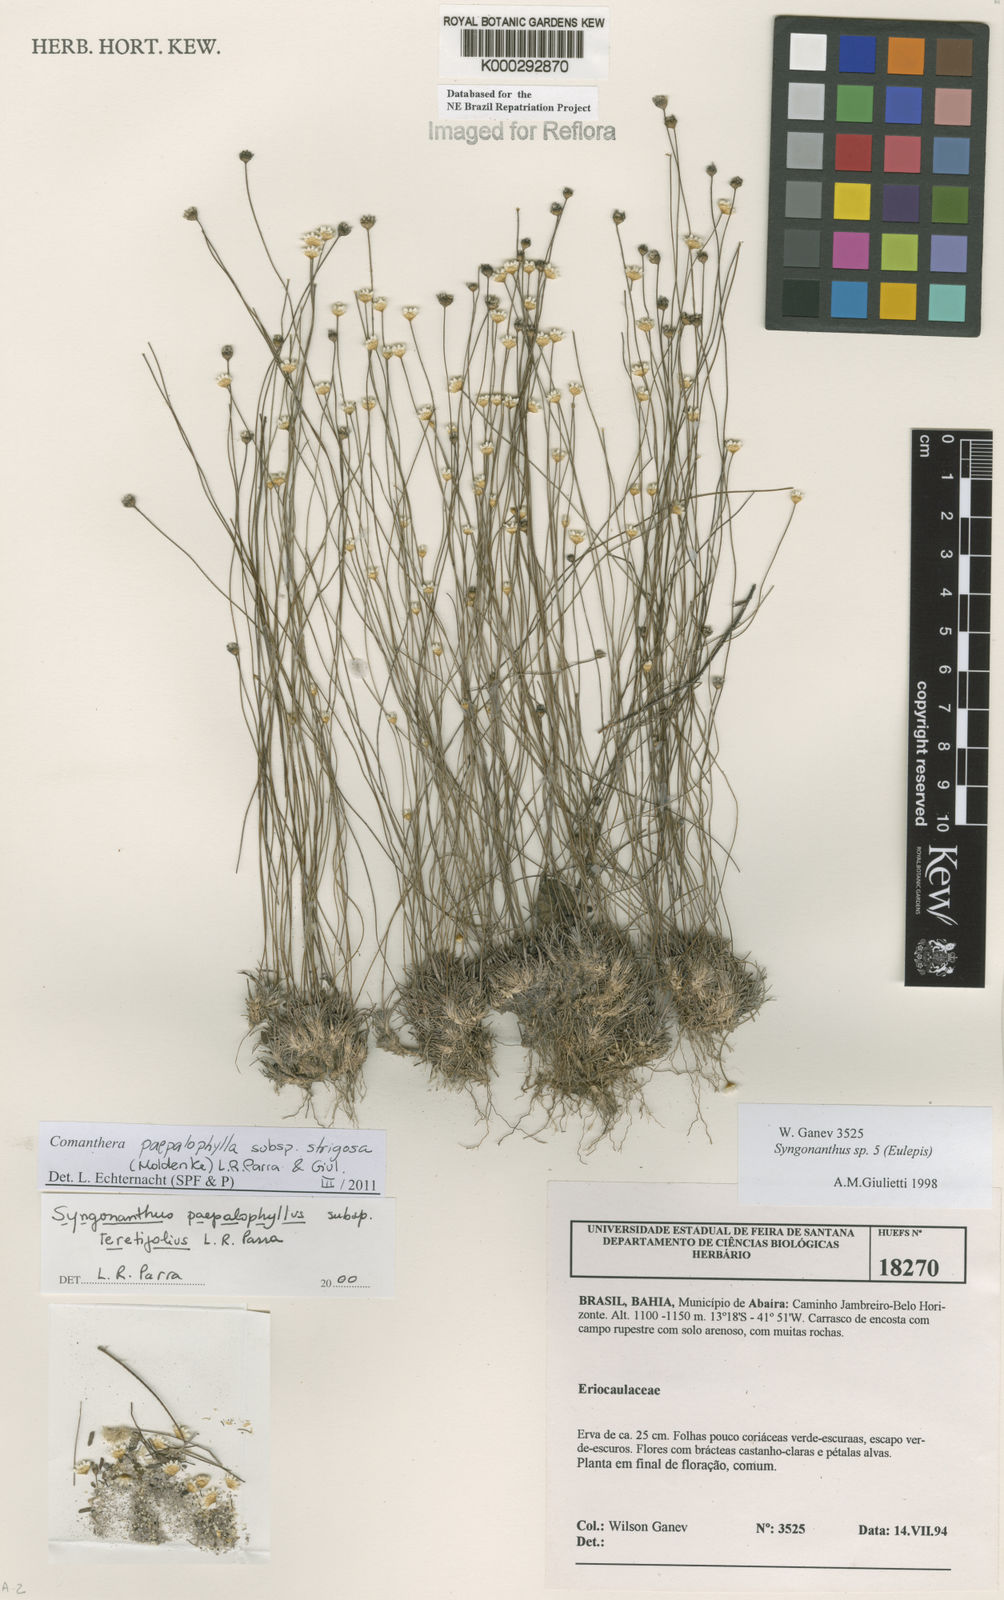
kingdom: Plantae
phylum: Tracheophyta
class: Liliopsida
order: Poales
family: Eriocaulaceae
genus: Comanthera
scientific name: Comanthera paepalophylla
